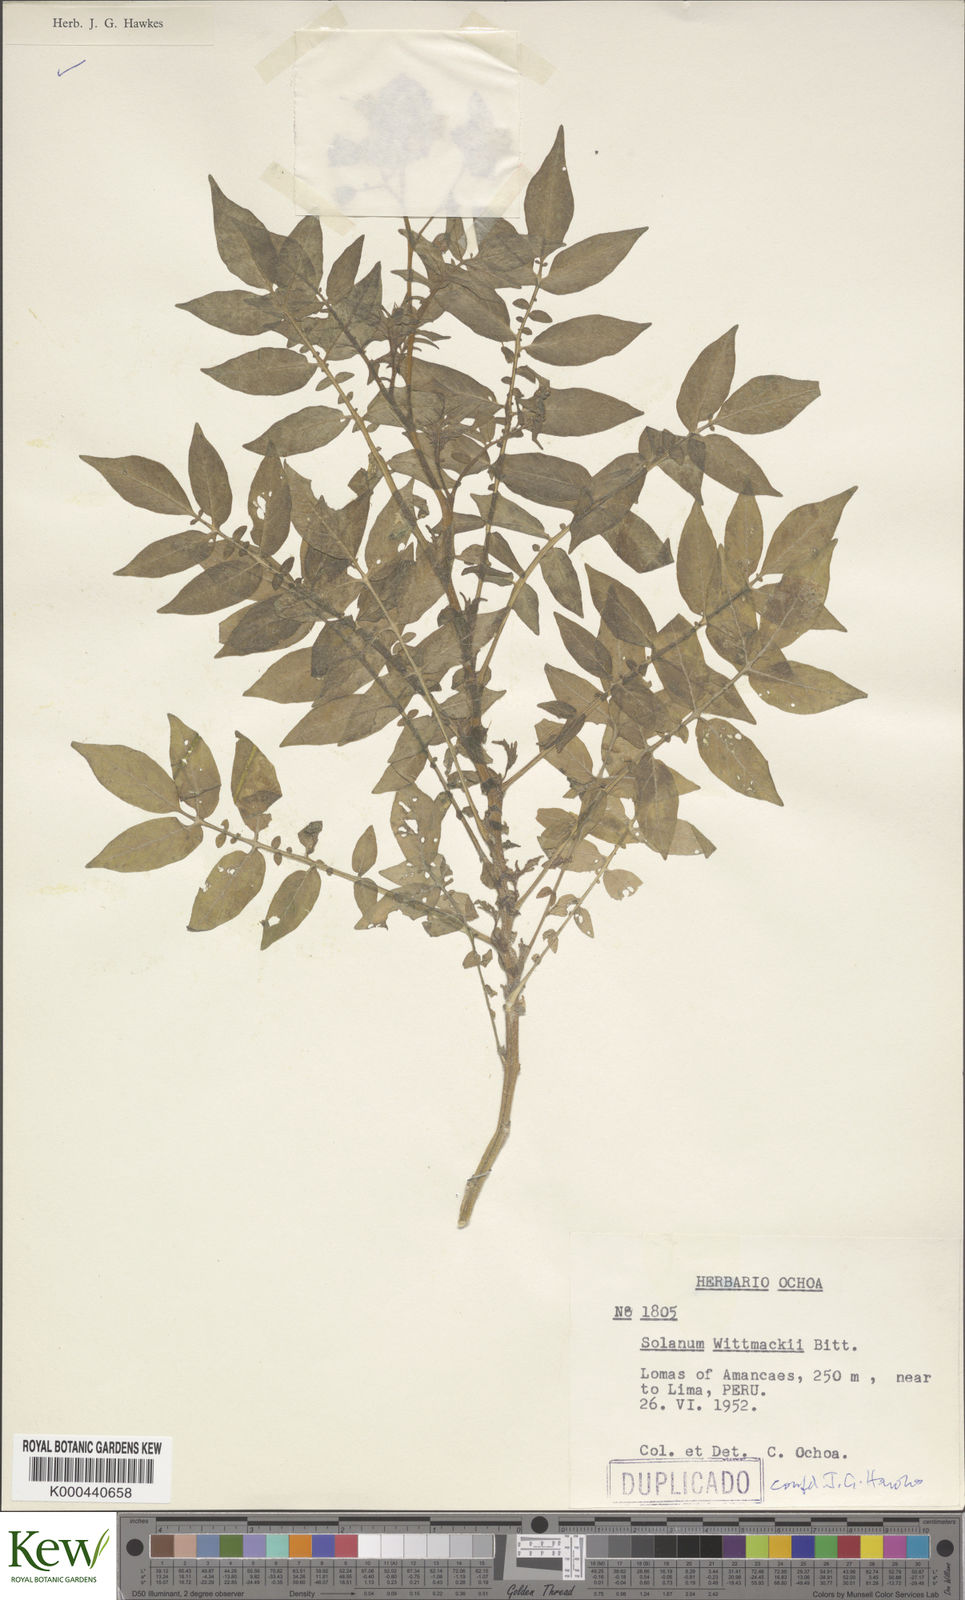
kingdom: Plantae
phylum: Tracheophyta
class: Magnoliopsida
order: Solanales
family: Solanaceae
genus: Solanum
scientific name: Solanum wittmackii
